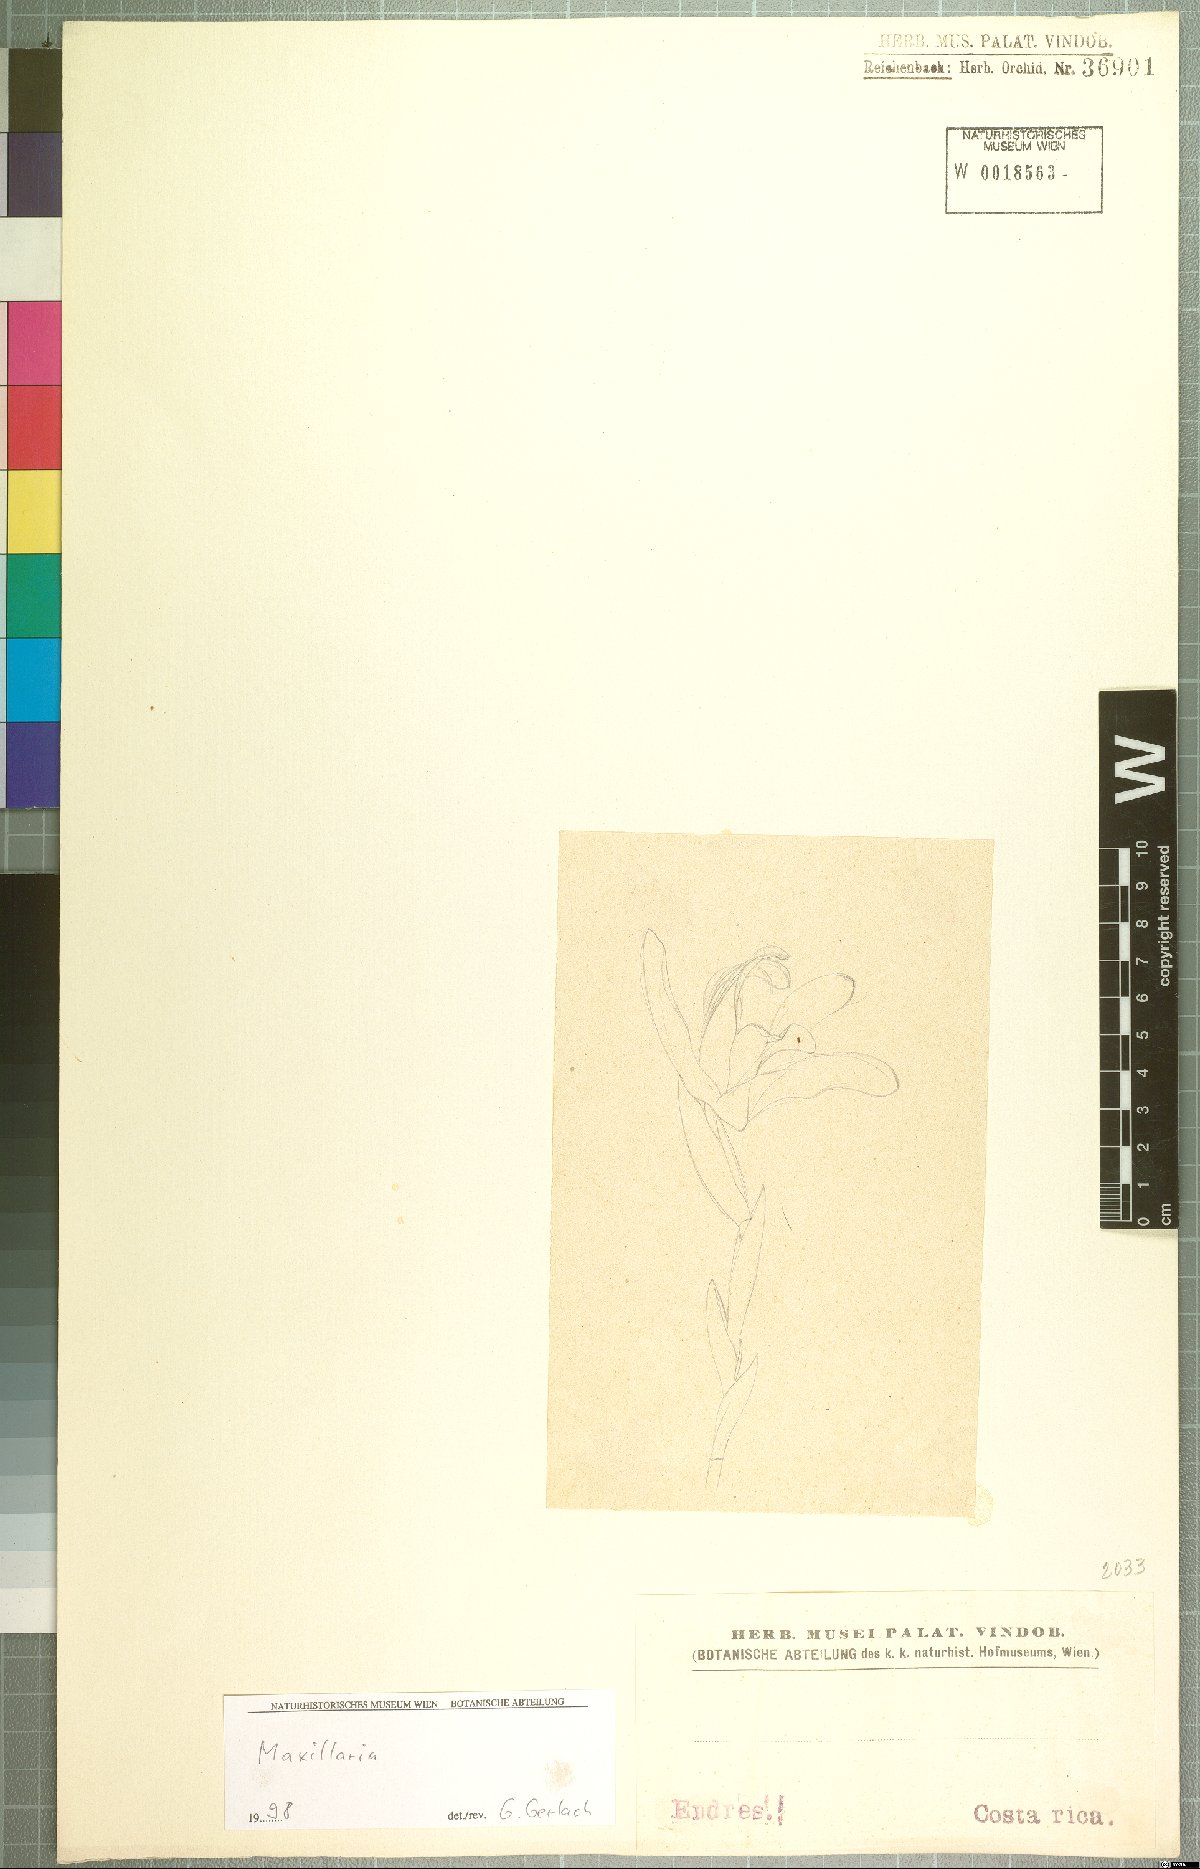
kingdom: Plantae
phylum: Tracheophyta
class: Liliopsida
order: Asparagales
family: Orchidaceae
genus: Maxillaria
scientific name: Maxillaria
